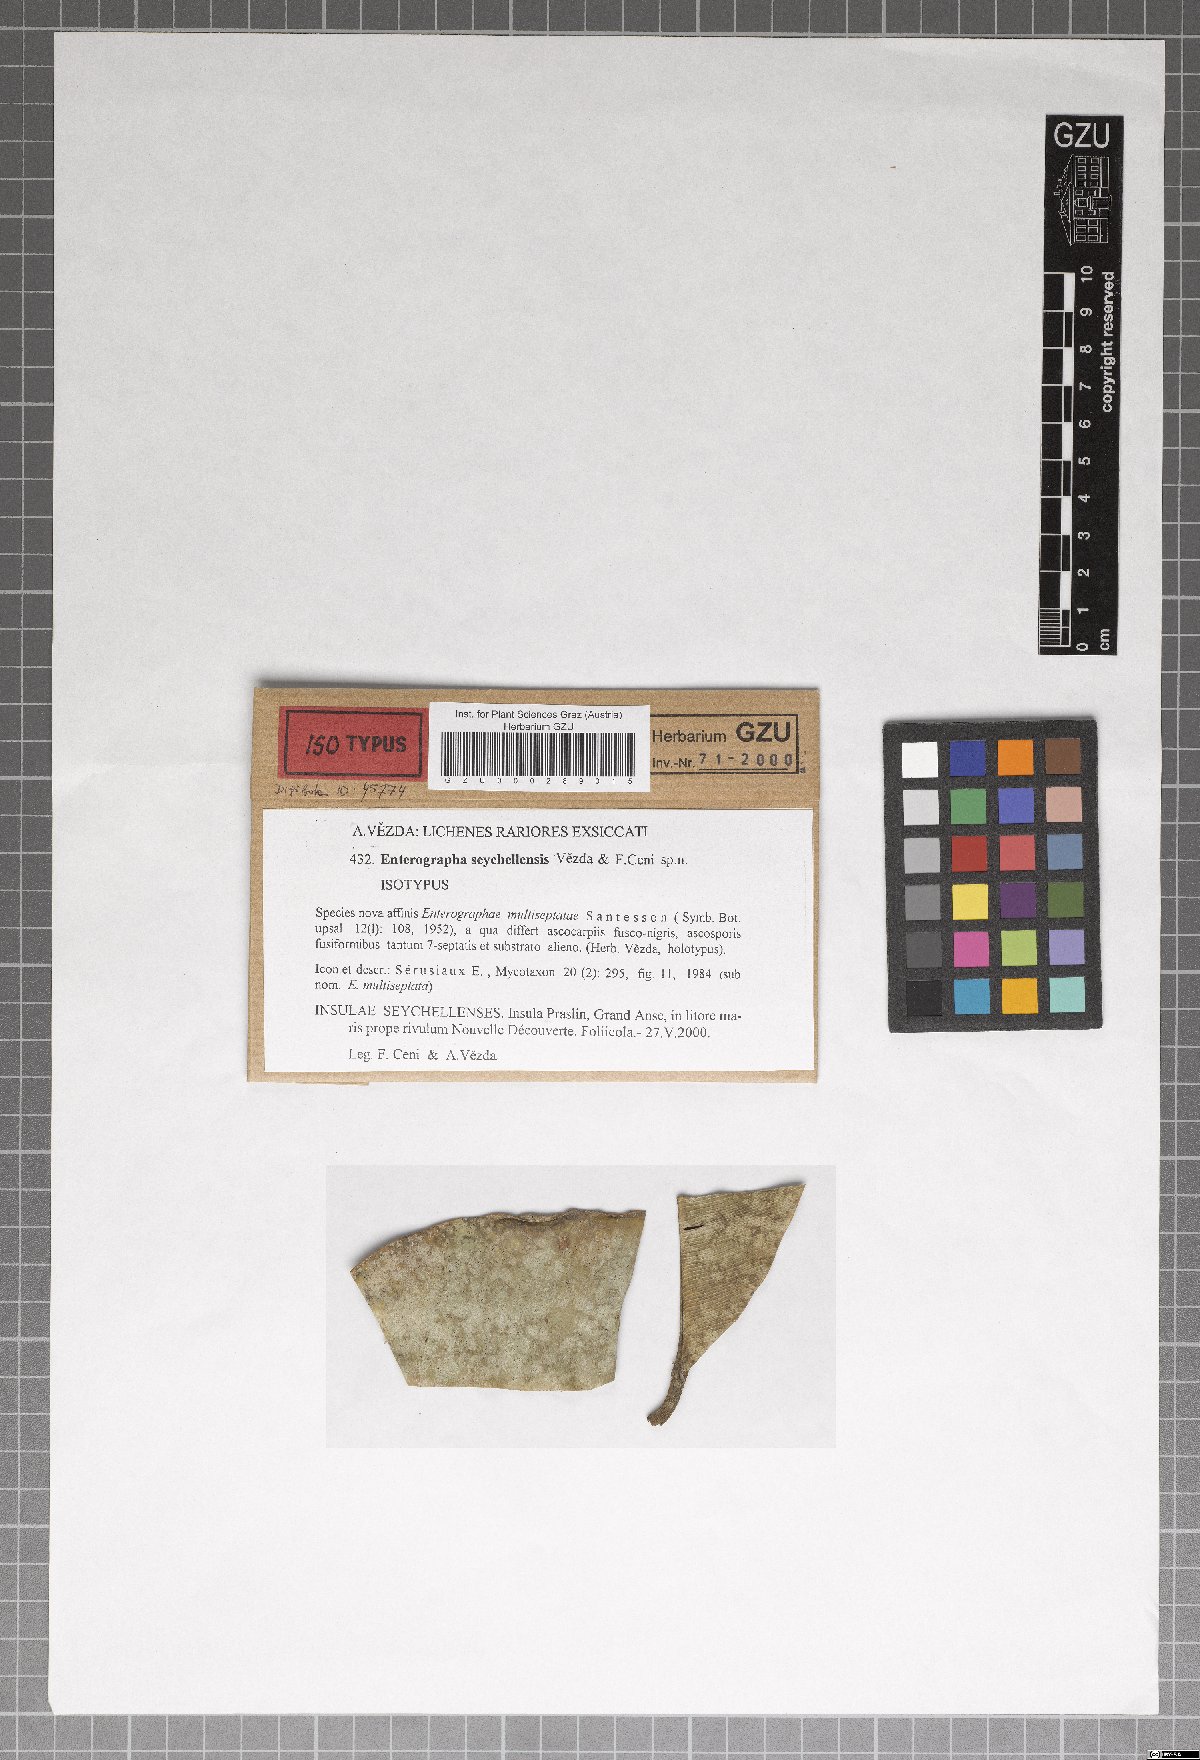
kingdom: Fungi
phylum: Ascomycota
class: Arthoniomycetes
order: Arthoniales
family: Roccellaceae
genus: Enterographa
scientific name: Enterographa seychellensis
